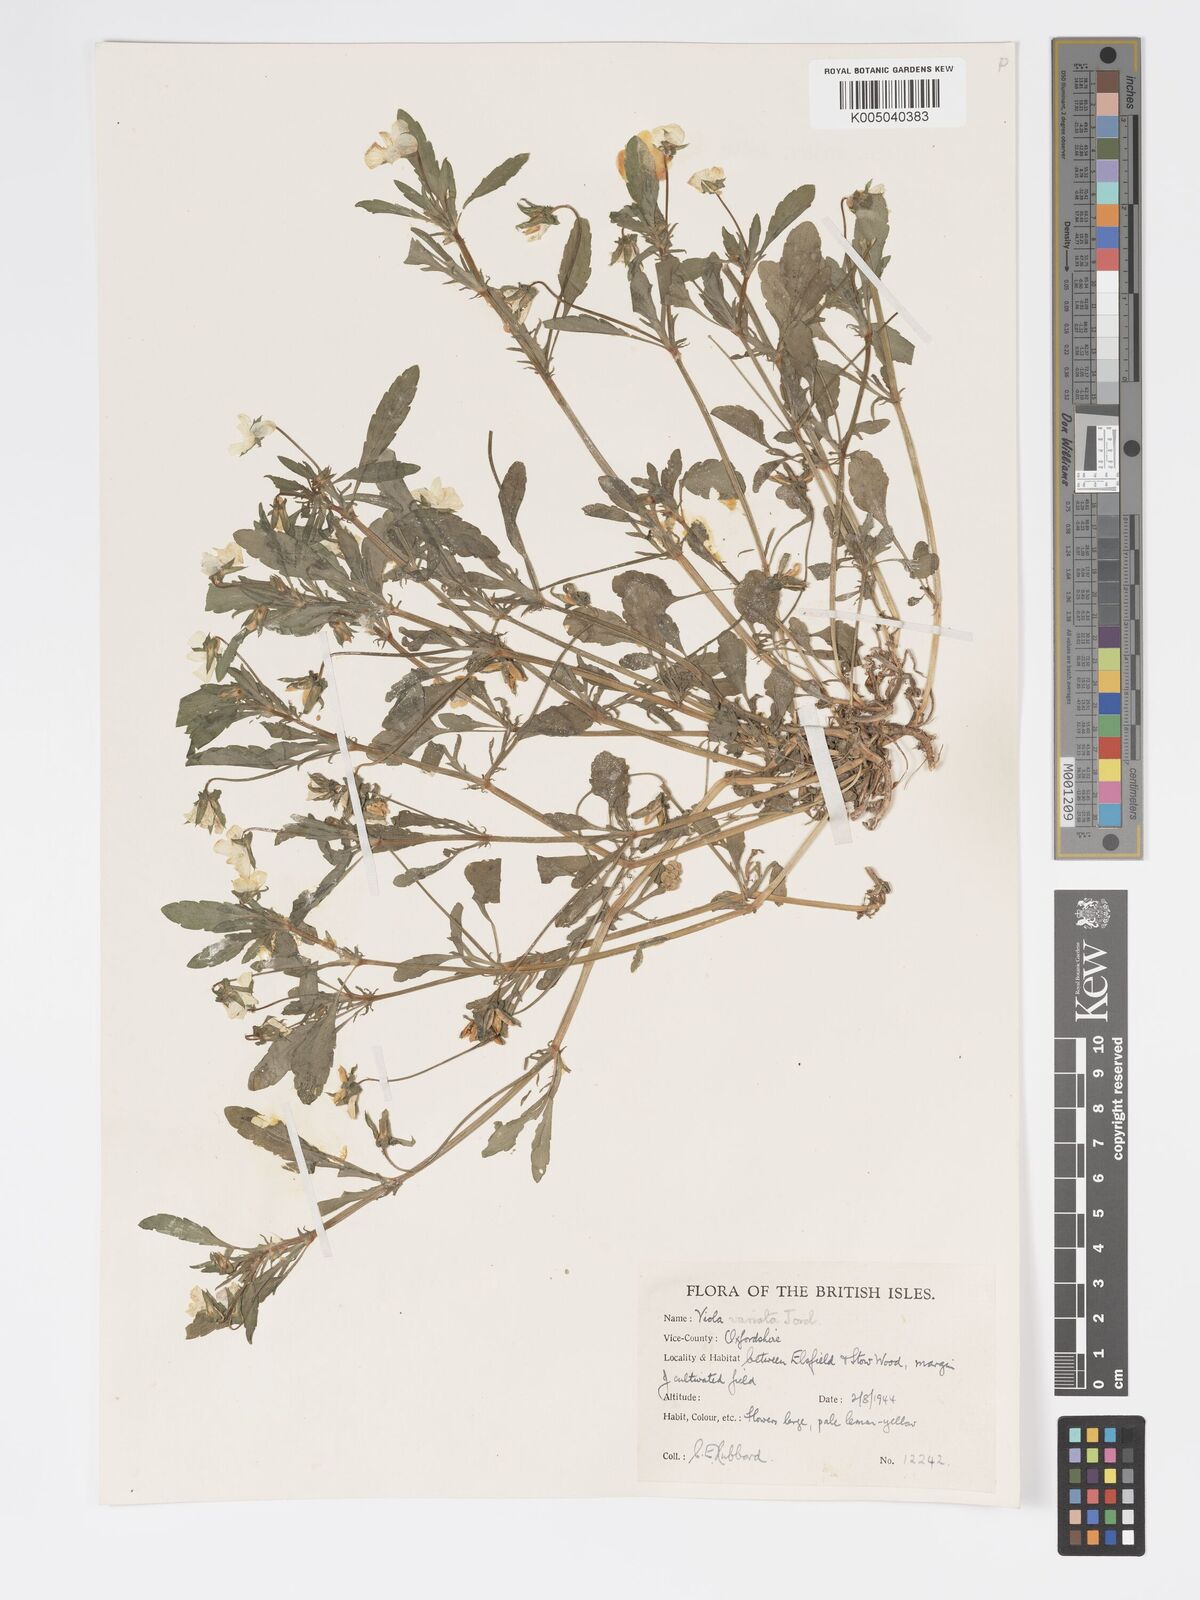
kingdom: Plantae
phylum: Tracheophyta
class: Magnoliopsida
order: Malpighiales
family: Violaceae
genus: Viola
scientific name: Viola arvensis
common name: Field pansy
